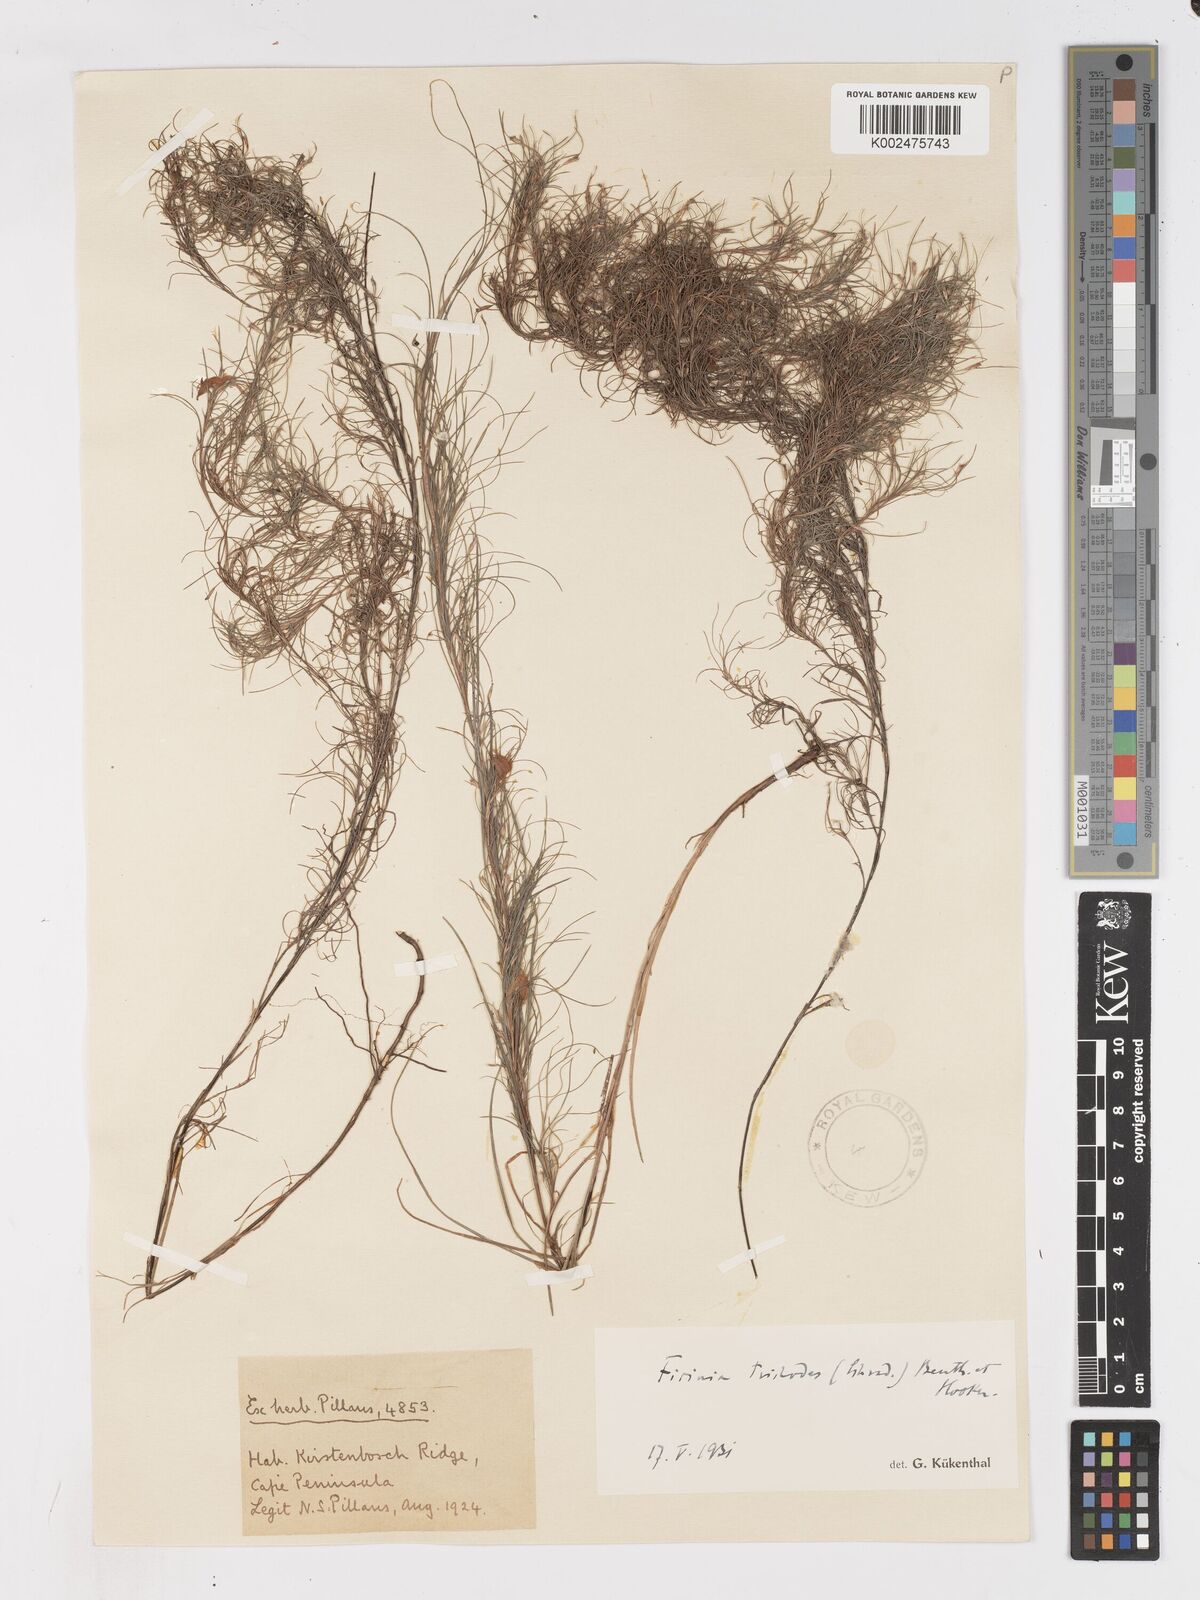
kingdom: Plantae
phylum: Tracheophyta
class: Liliopsida
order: Poales
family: Cyperaceae
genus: Ficinia
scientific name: Ficinia trichodes
